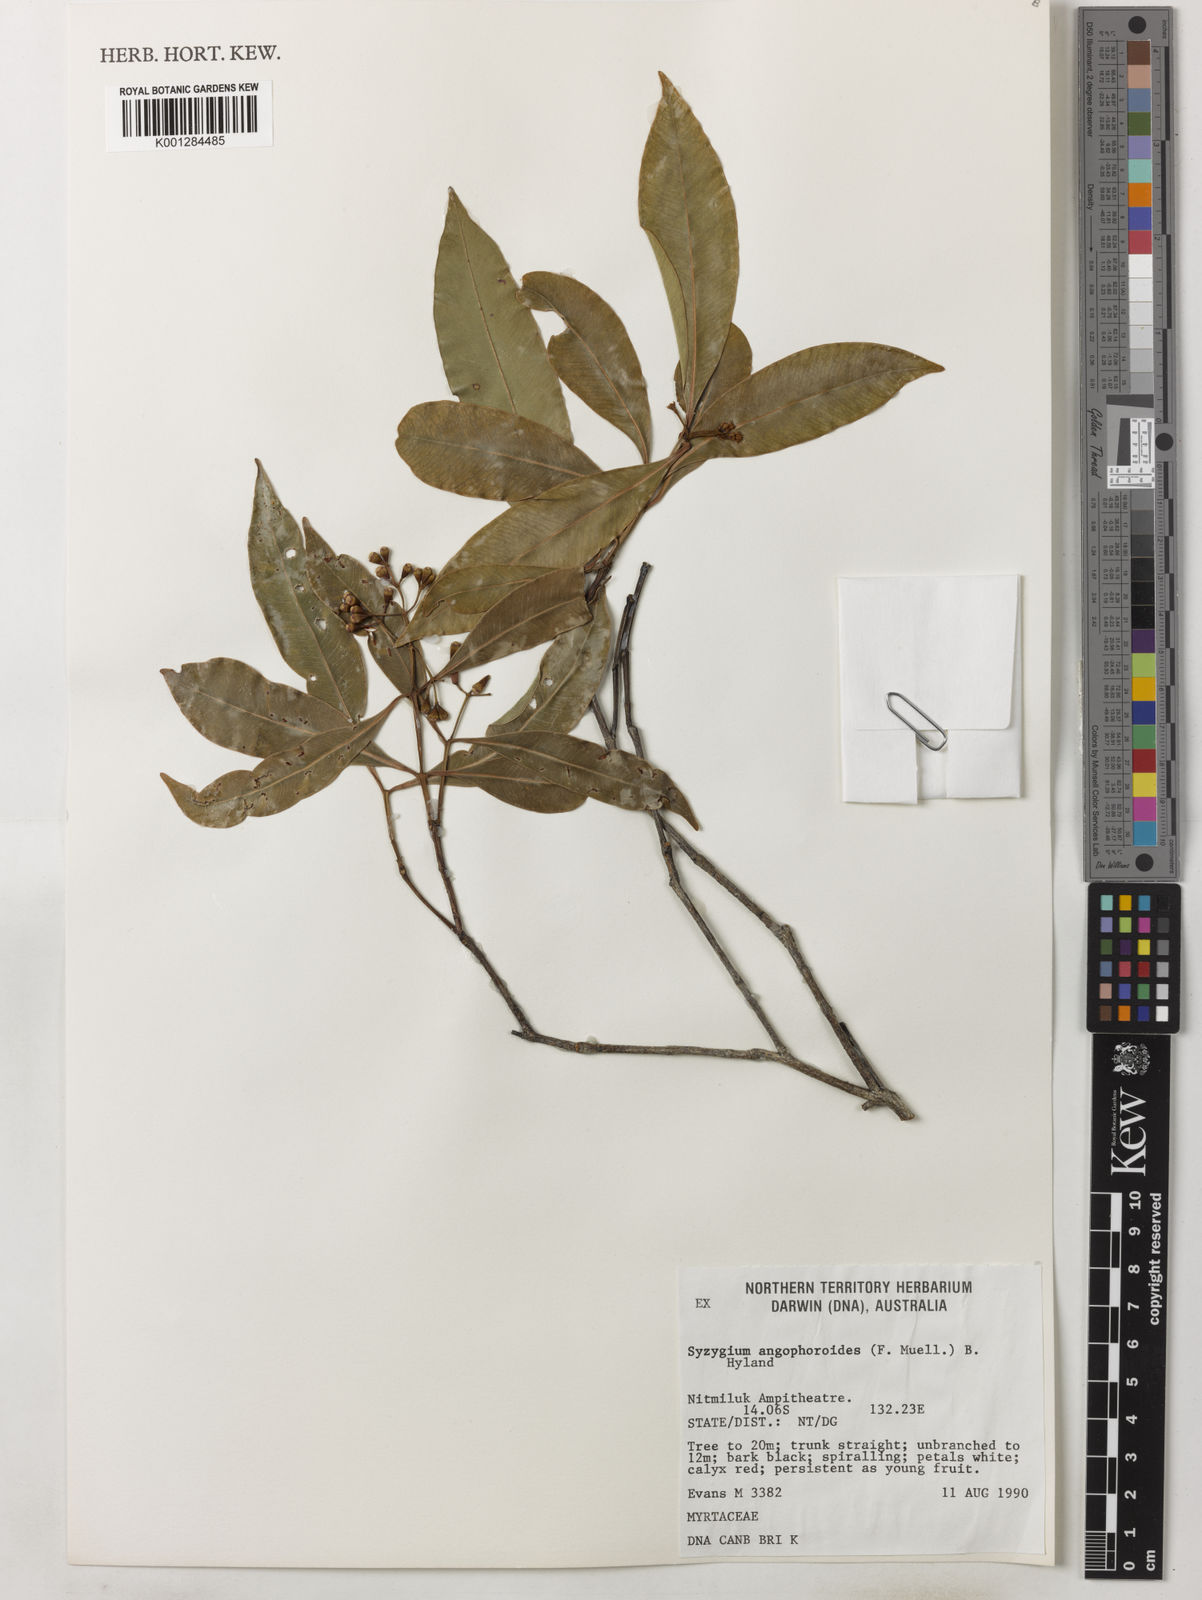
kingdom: Plantae
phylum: Tracheophyta
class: Magnoliopsida
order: Myrtales
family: Myrtaceae
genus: Syzygium
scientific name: Syzygium angophoroides
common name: Swamp satinash
